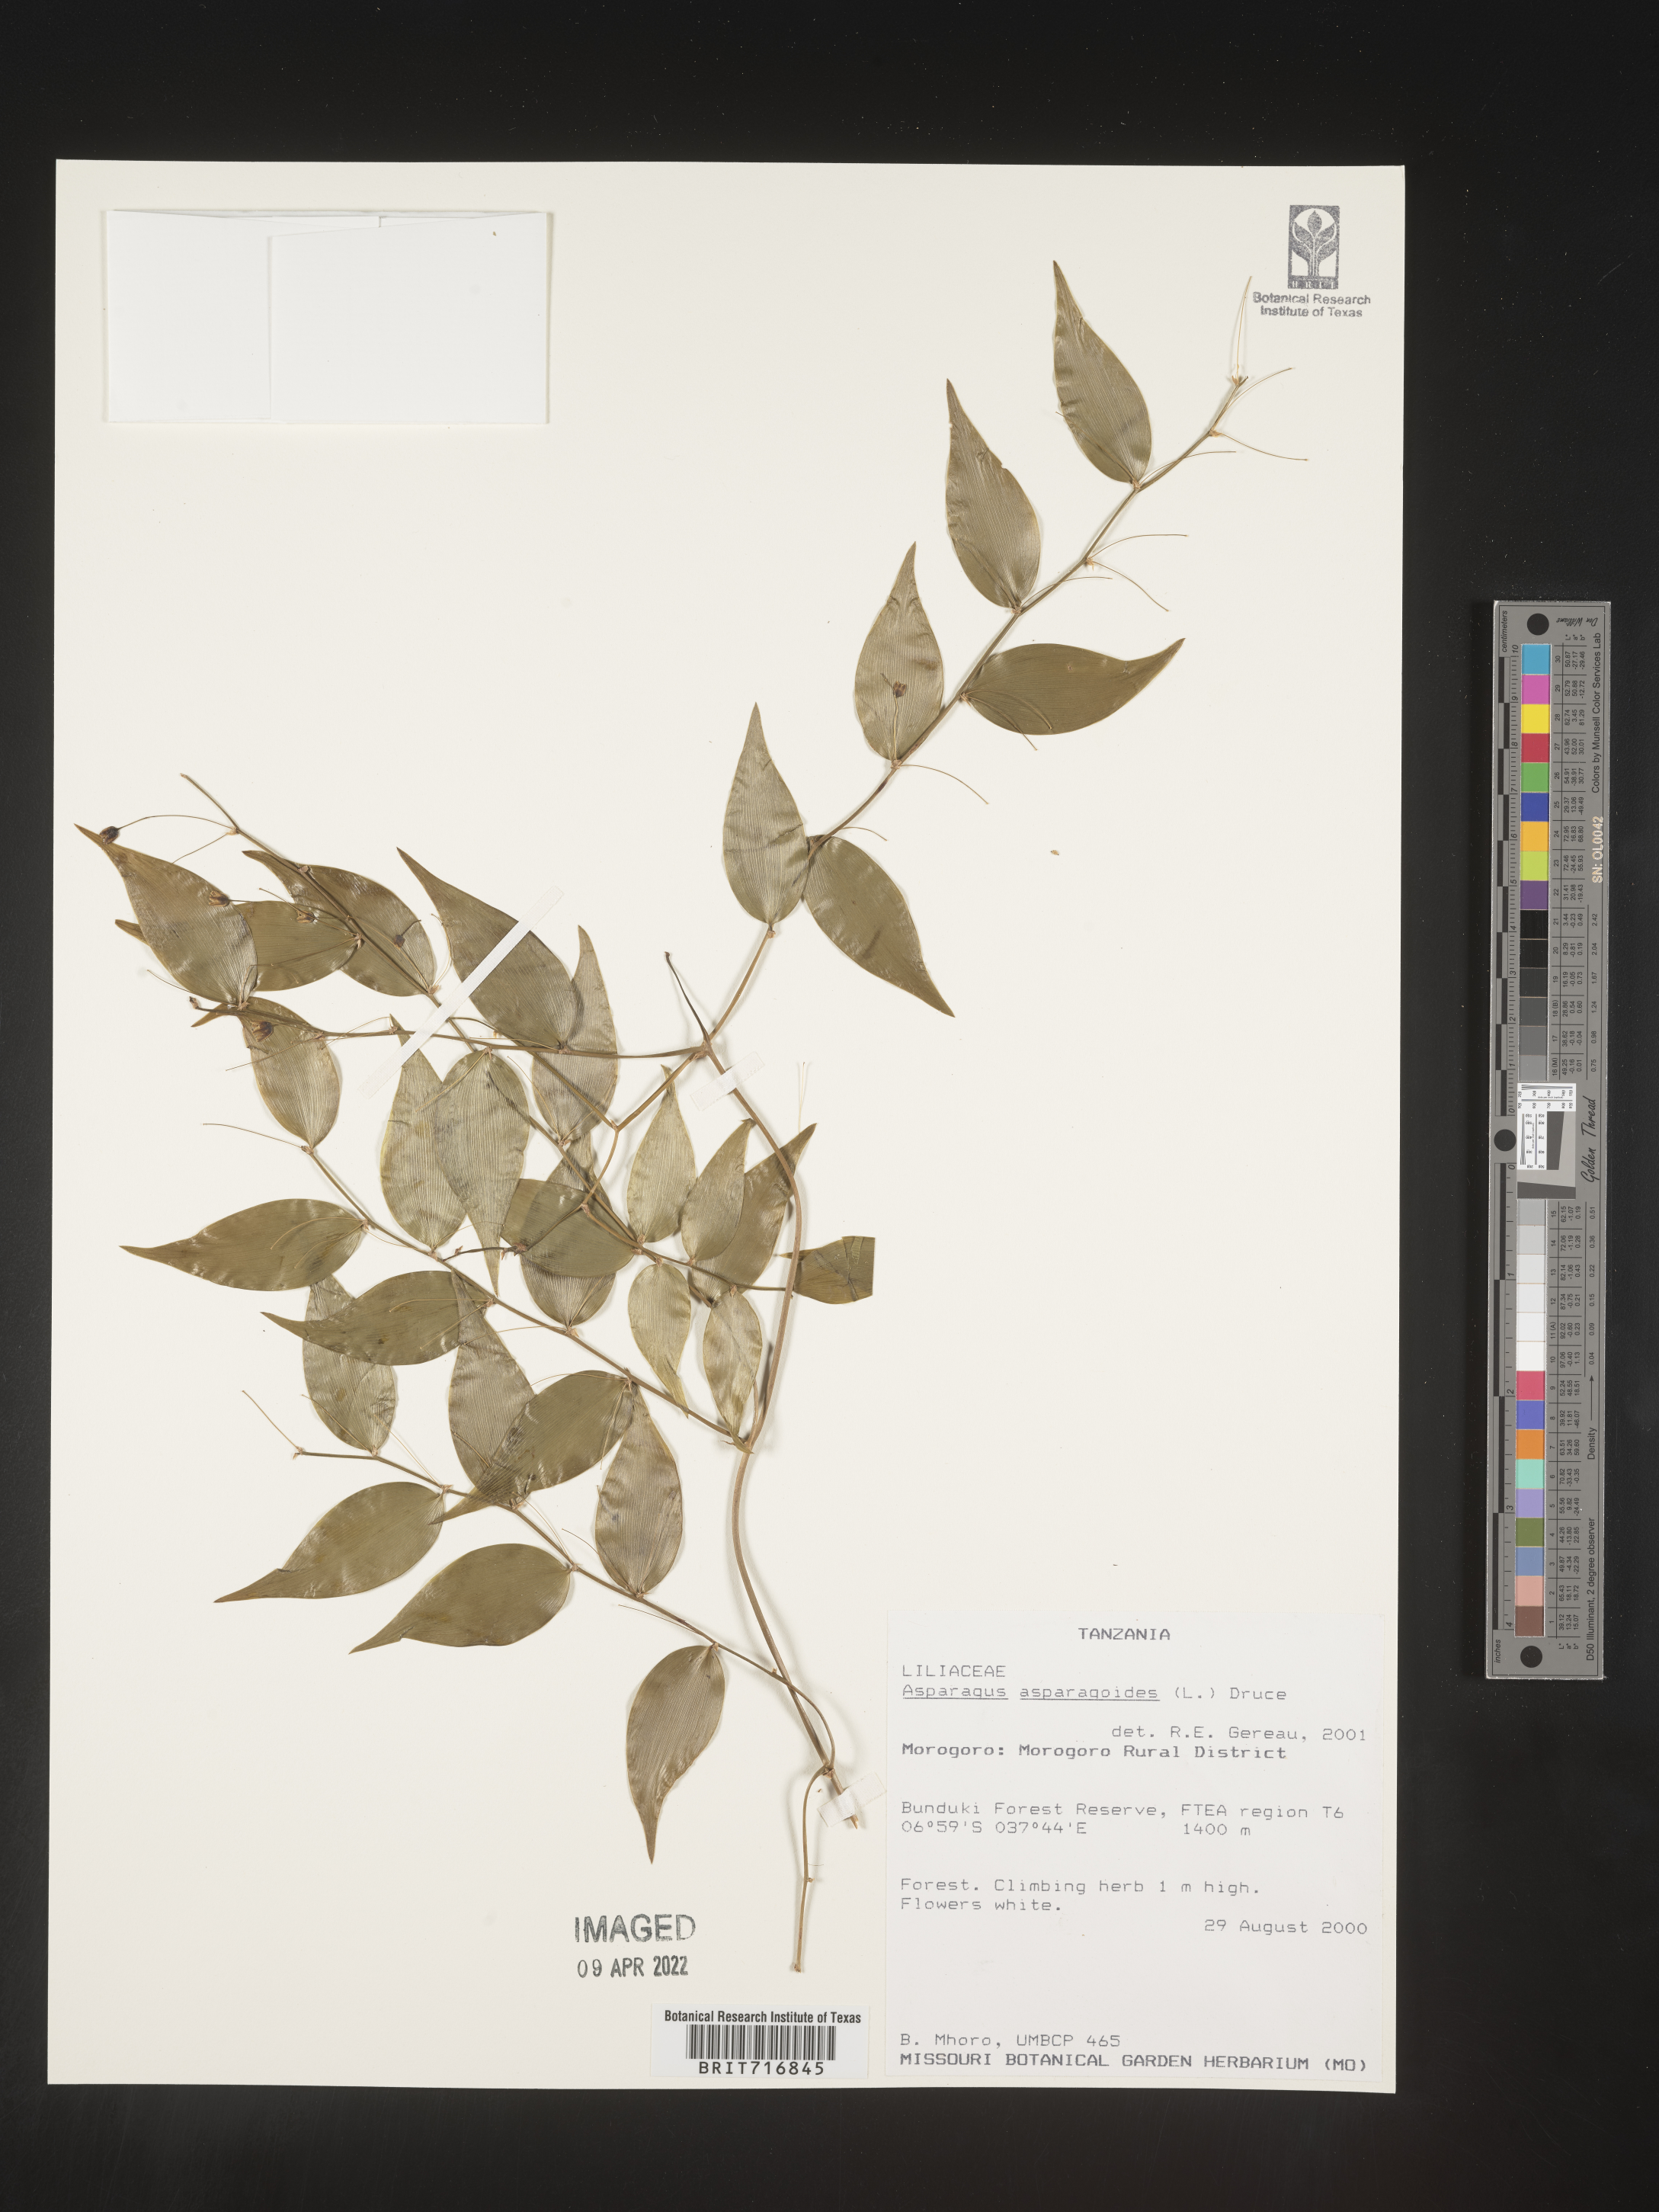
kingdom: Plantae
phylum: Tracheophyta
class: Liliopsida
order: Asparagales
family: Asparagaceae
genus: Asparagus
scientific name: Asparagus
